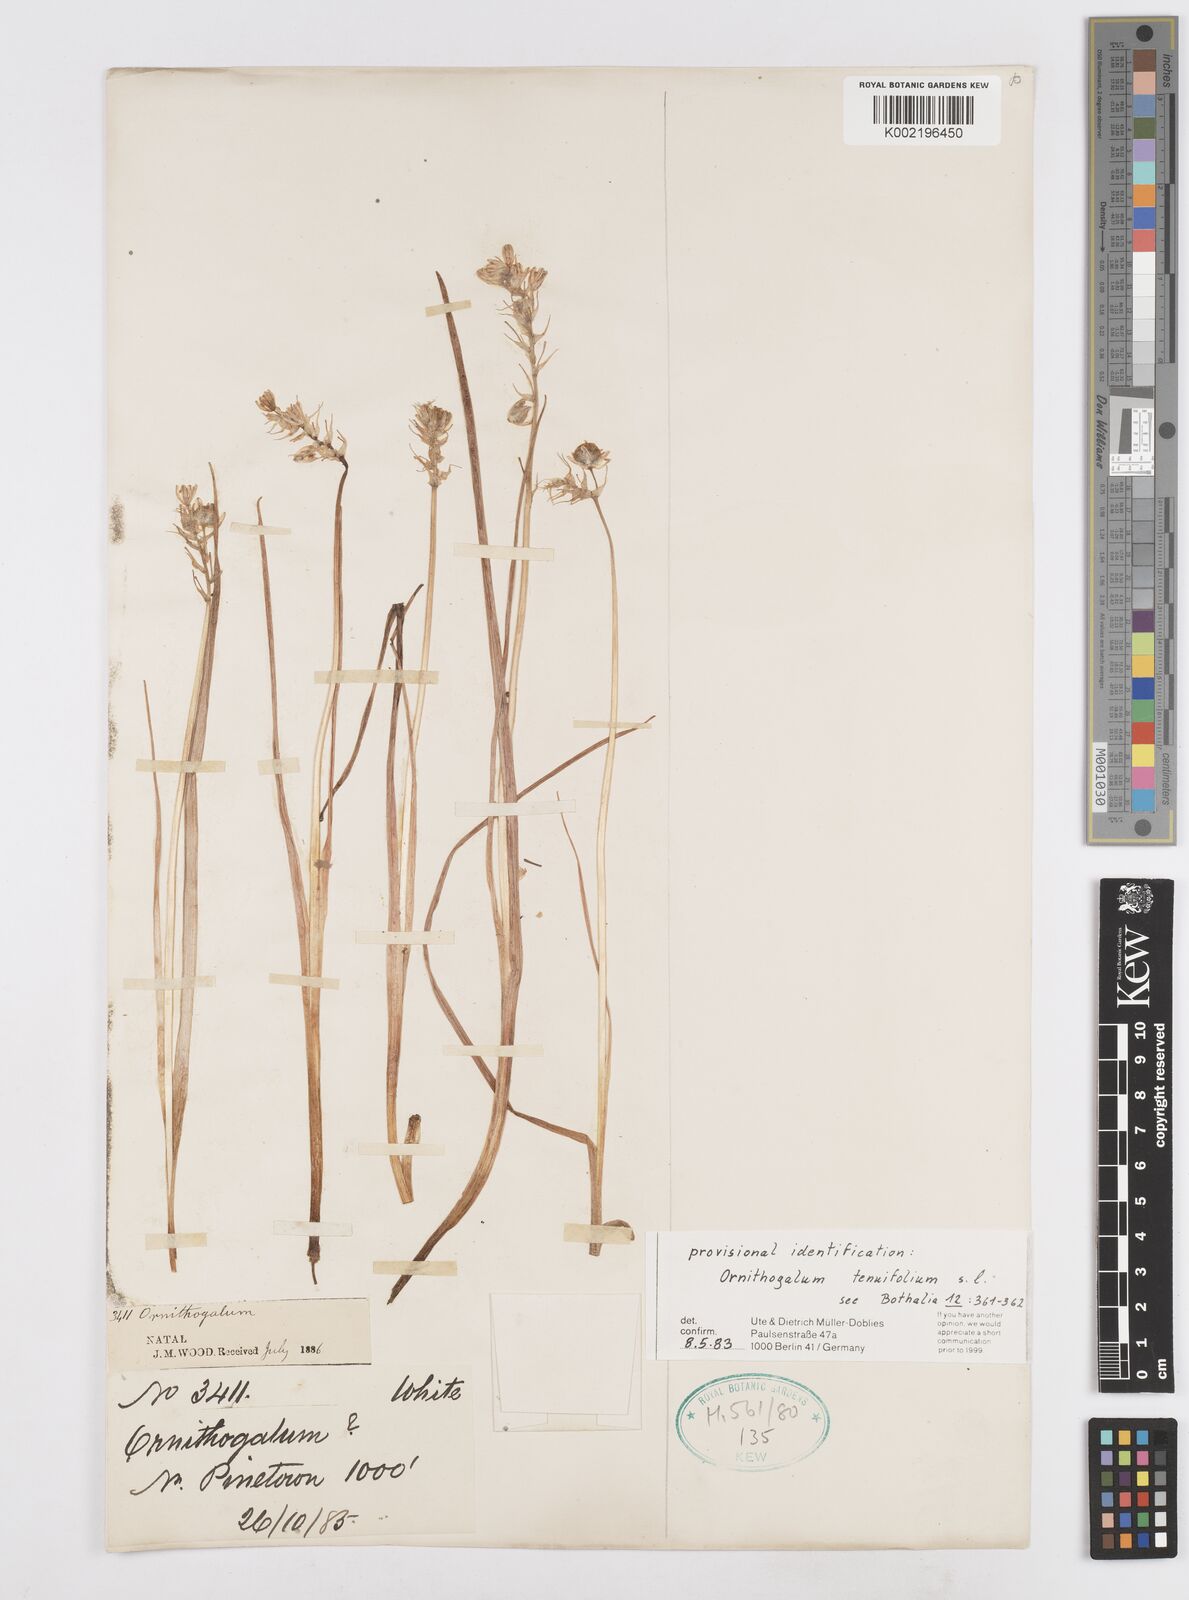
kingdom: Plantae
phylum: Tracheophyta
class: Liliopsida
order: Asparagales
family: Asparagaceae
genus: Albuca
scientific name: Albuca virens
